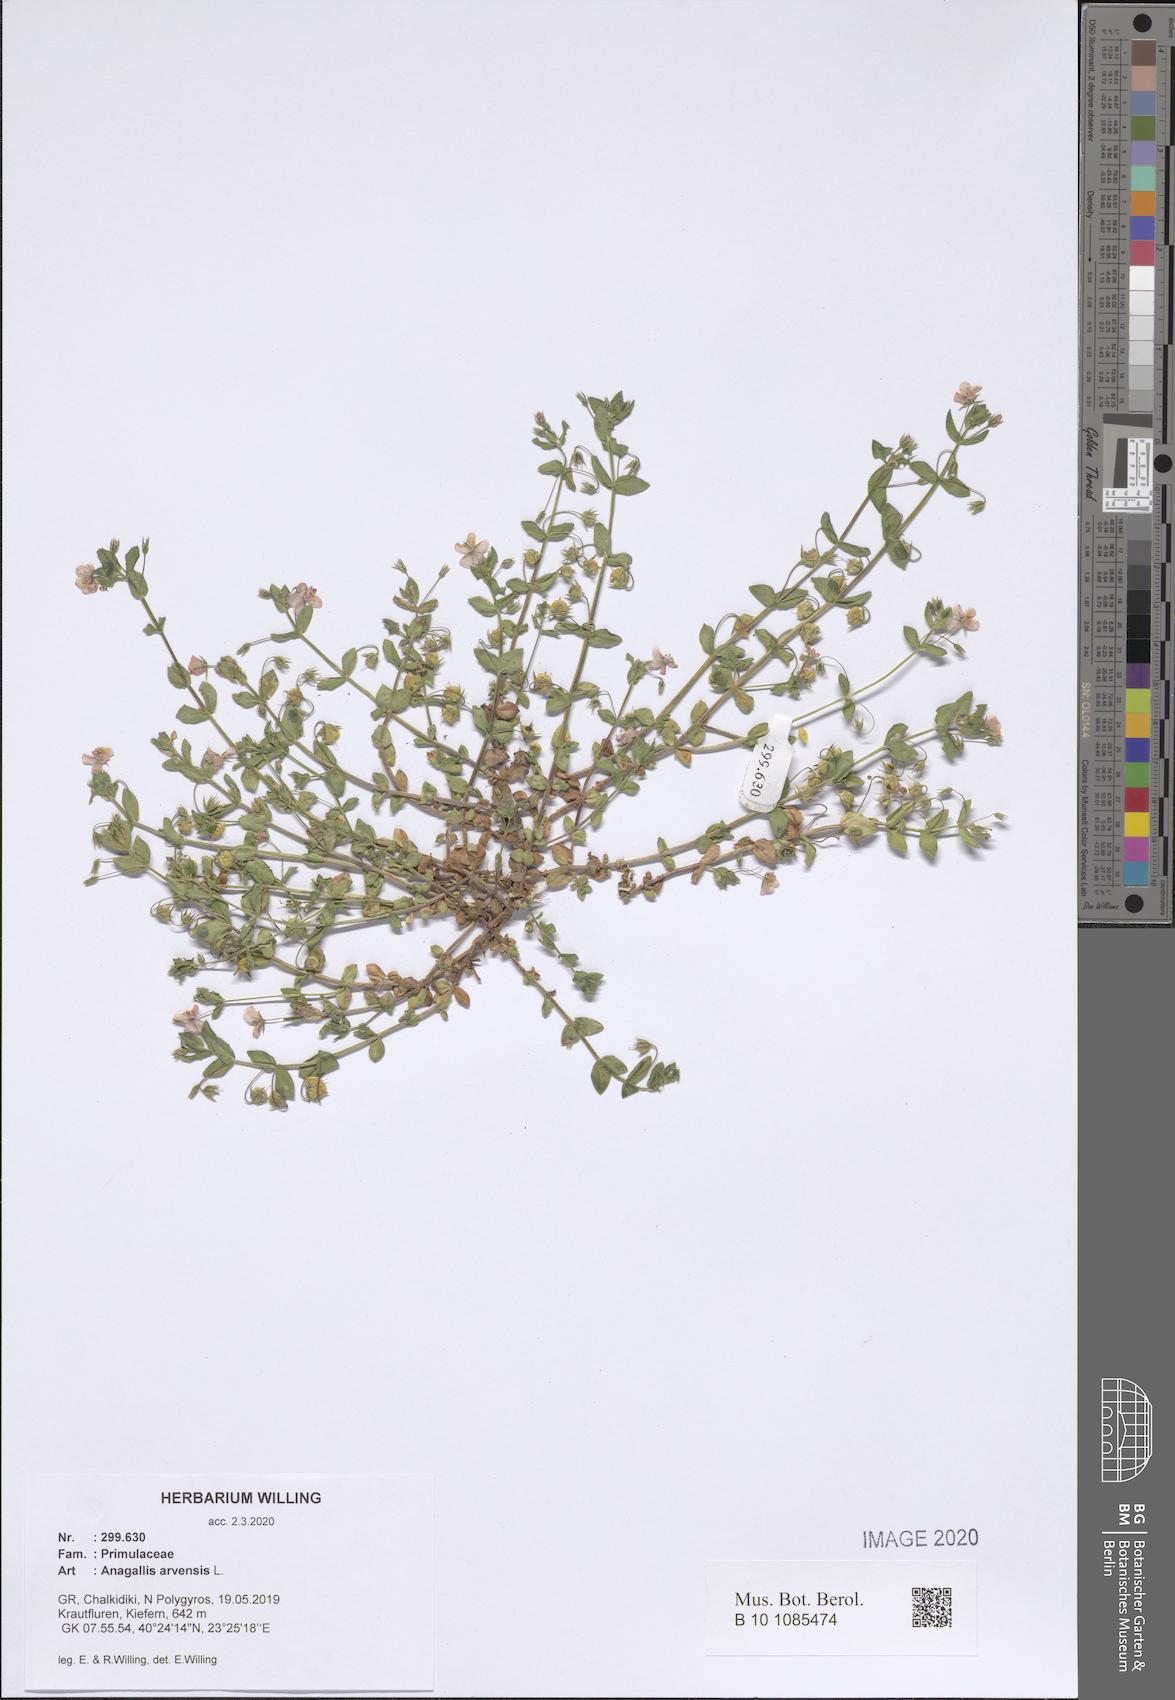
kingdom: Plantae
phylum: Tracheophyta
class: Magnoliopsida
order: Ericales
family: Primulaceae
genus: Lysimachia
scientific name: Lysimachia arvensis
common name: Scarlet pimpernel
